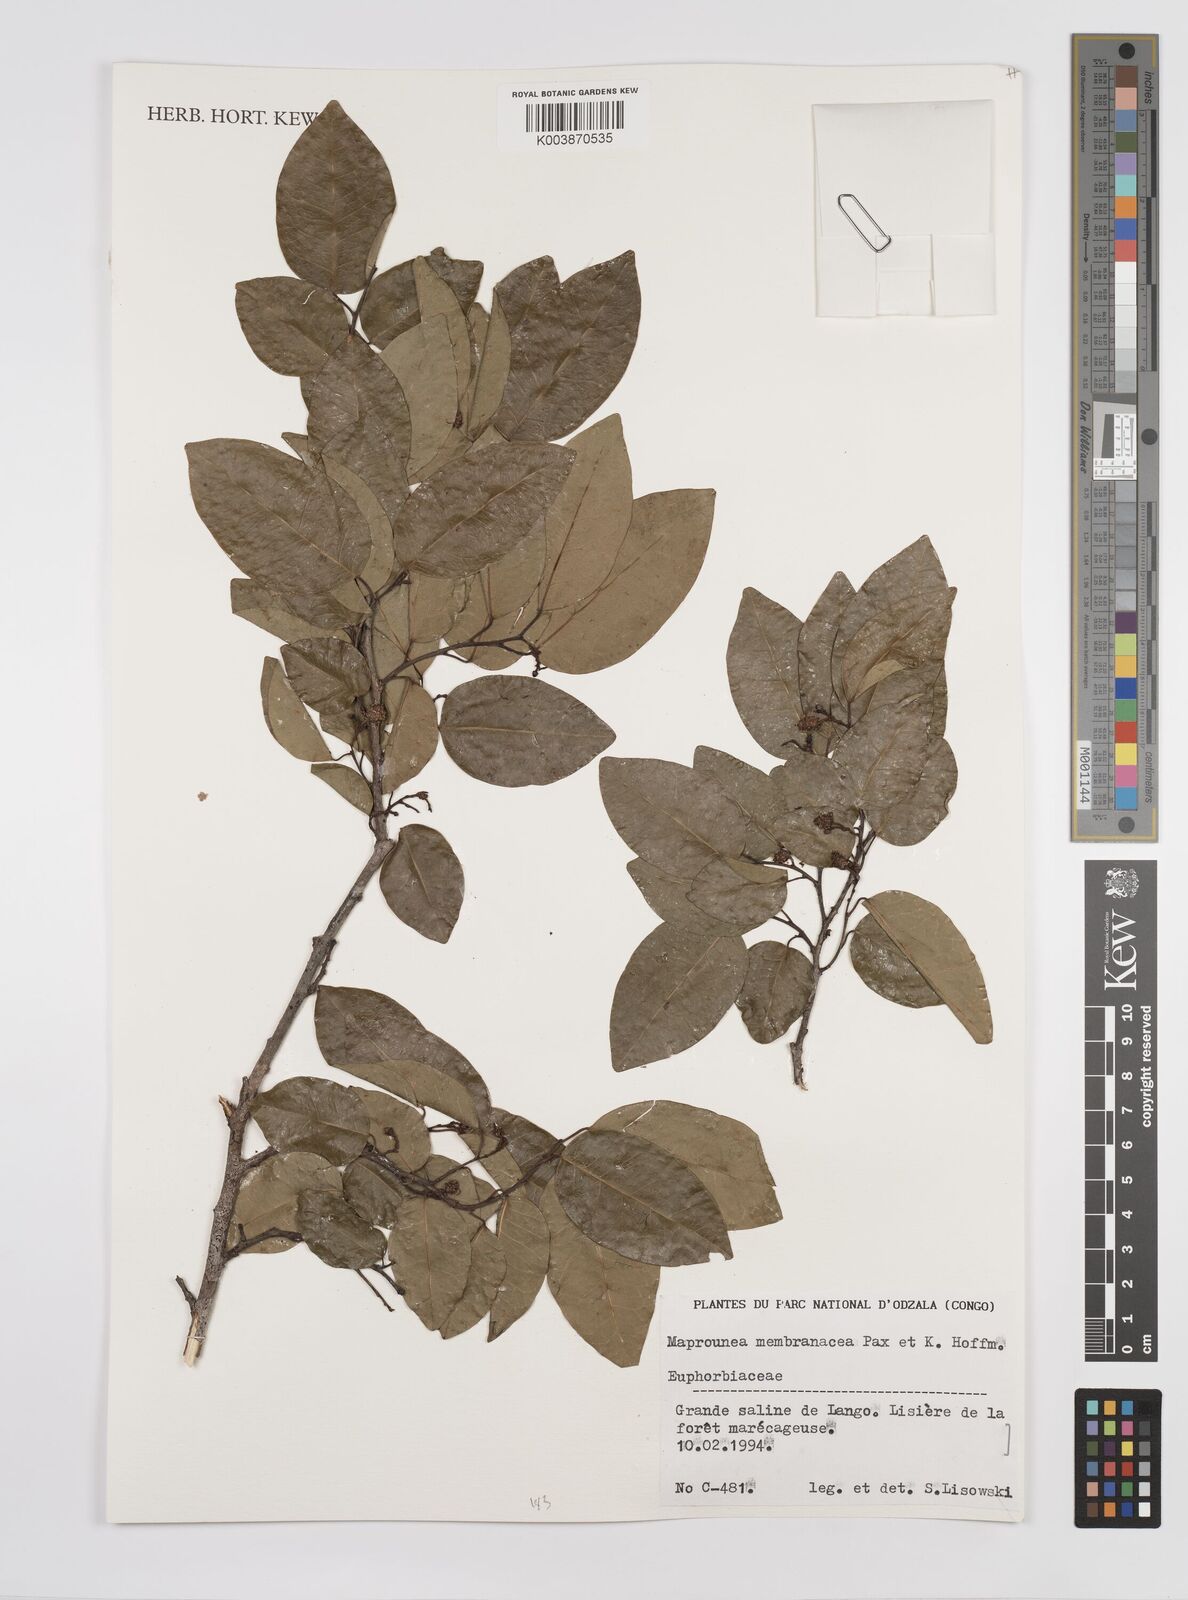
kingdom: Plantae
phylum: Tracheophyta
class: Magnoliopsida
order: Malpighiales
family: Euphorbiaceae
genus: Maprounea
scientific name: Maprounea membranacea
